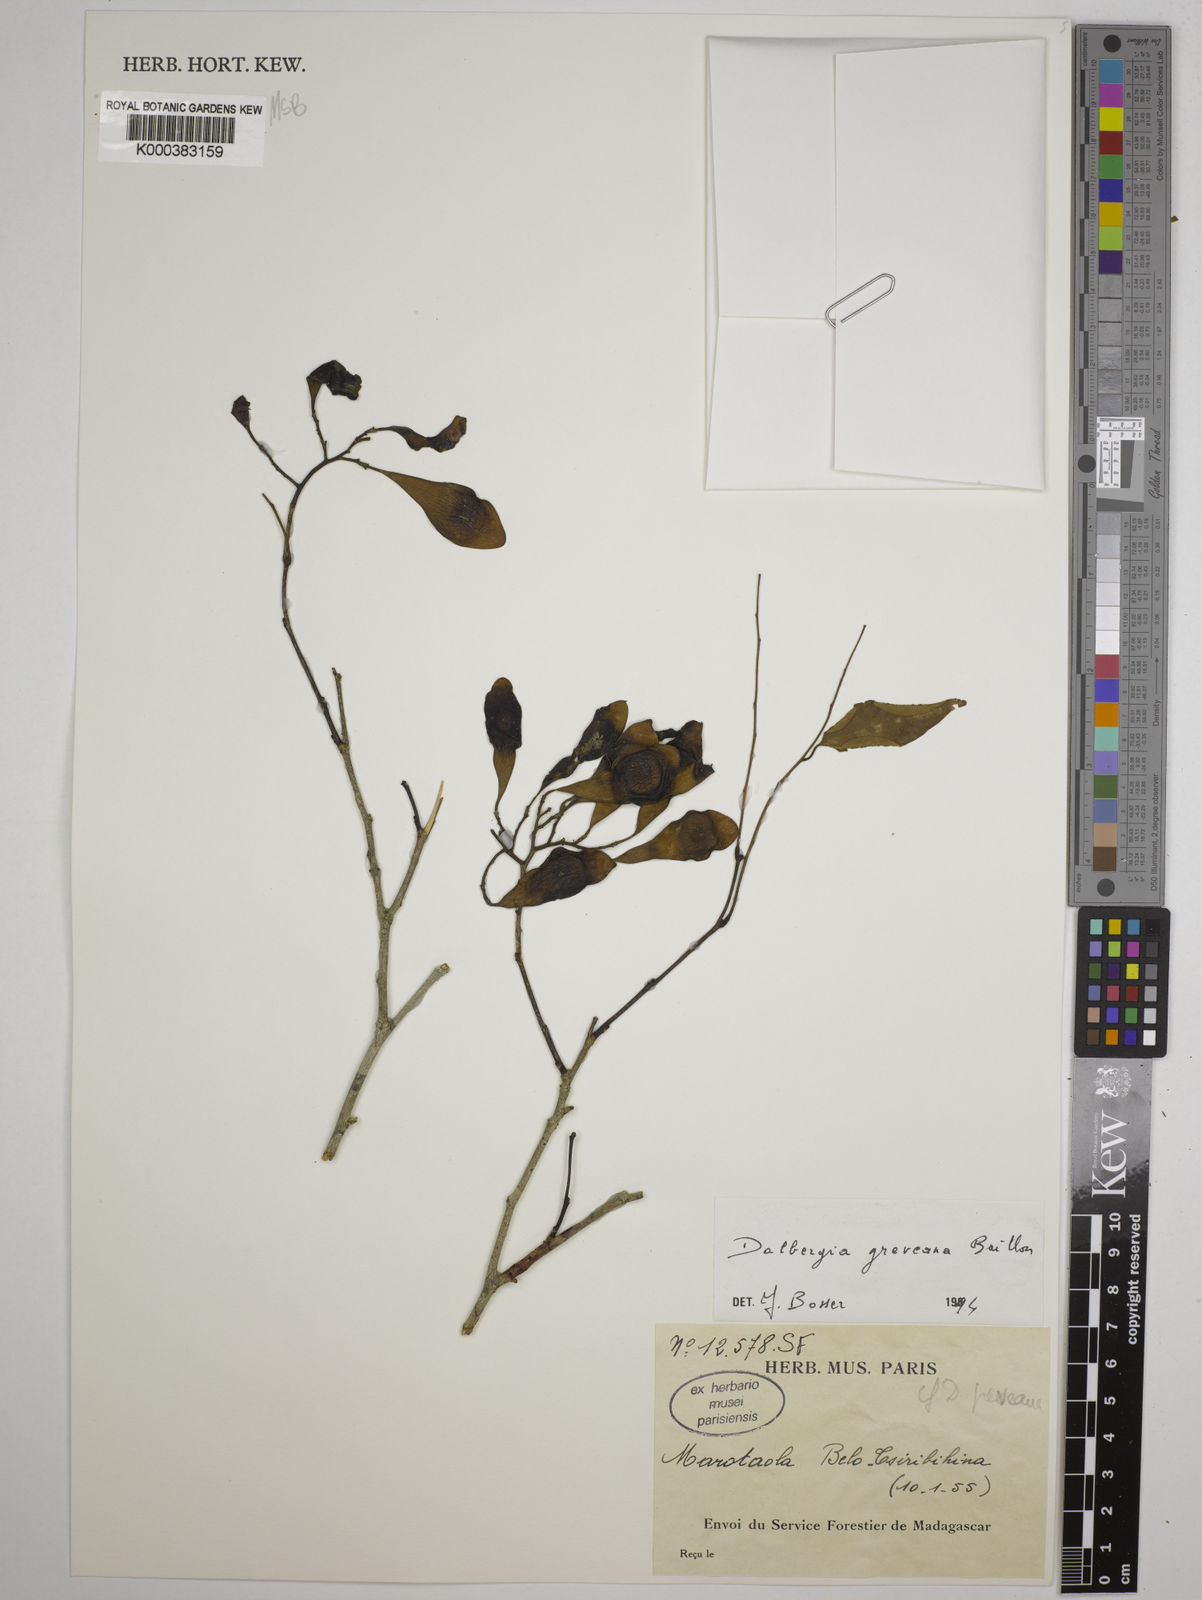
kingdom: Plantae
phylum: Tracheophyta
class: Magnoliopsida
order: Fabales
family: Fabaceae
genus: Dalbergia
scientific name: Dalbergia greveana
